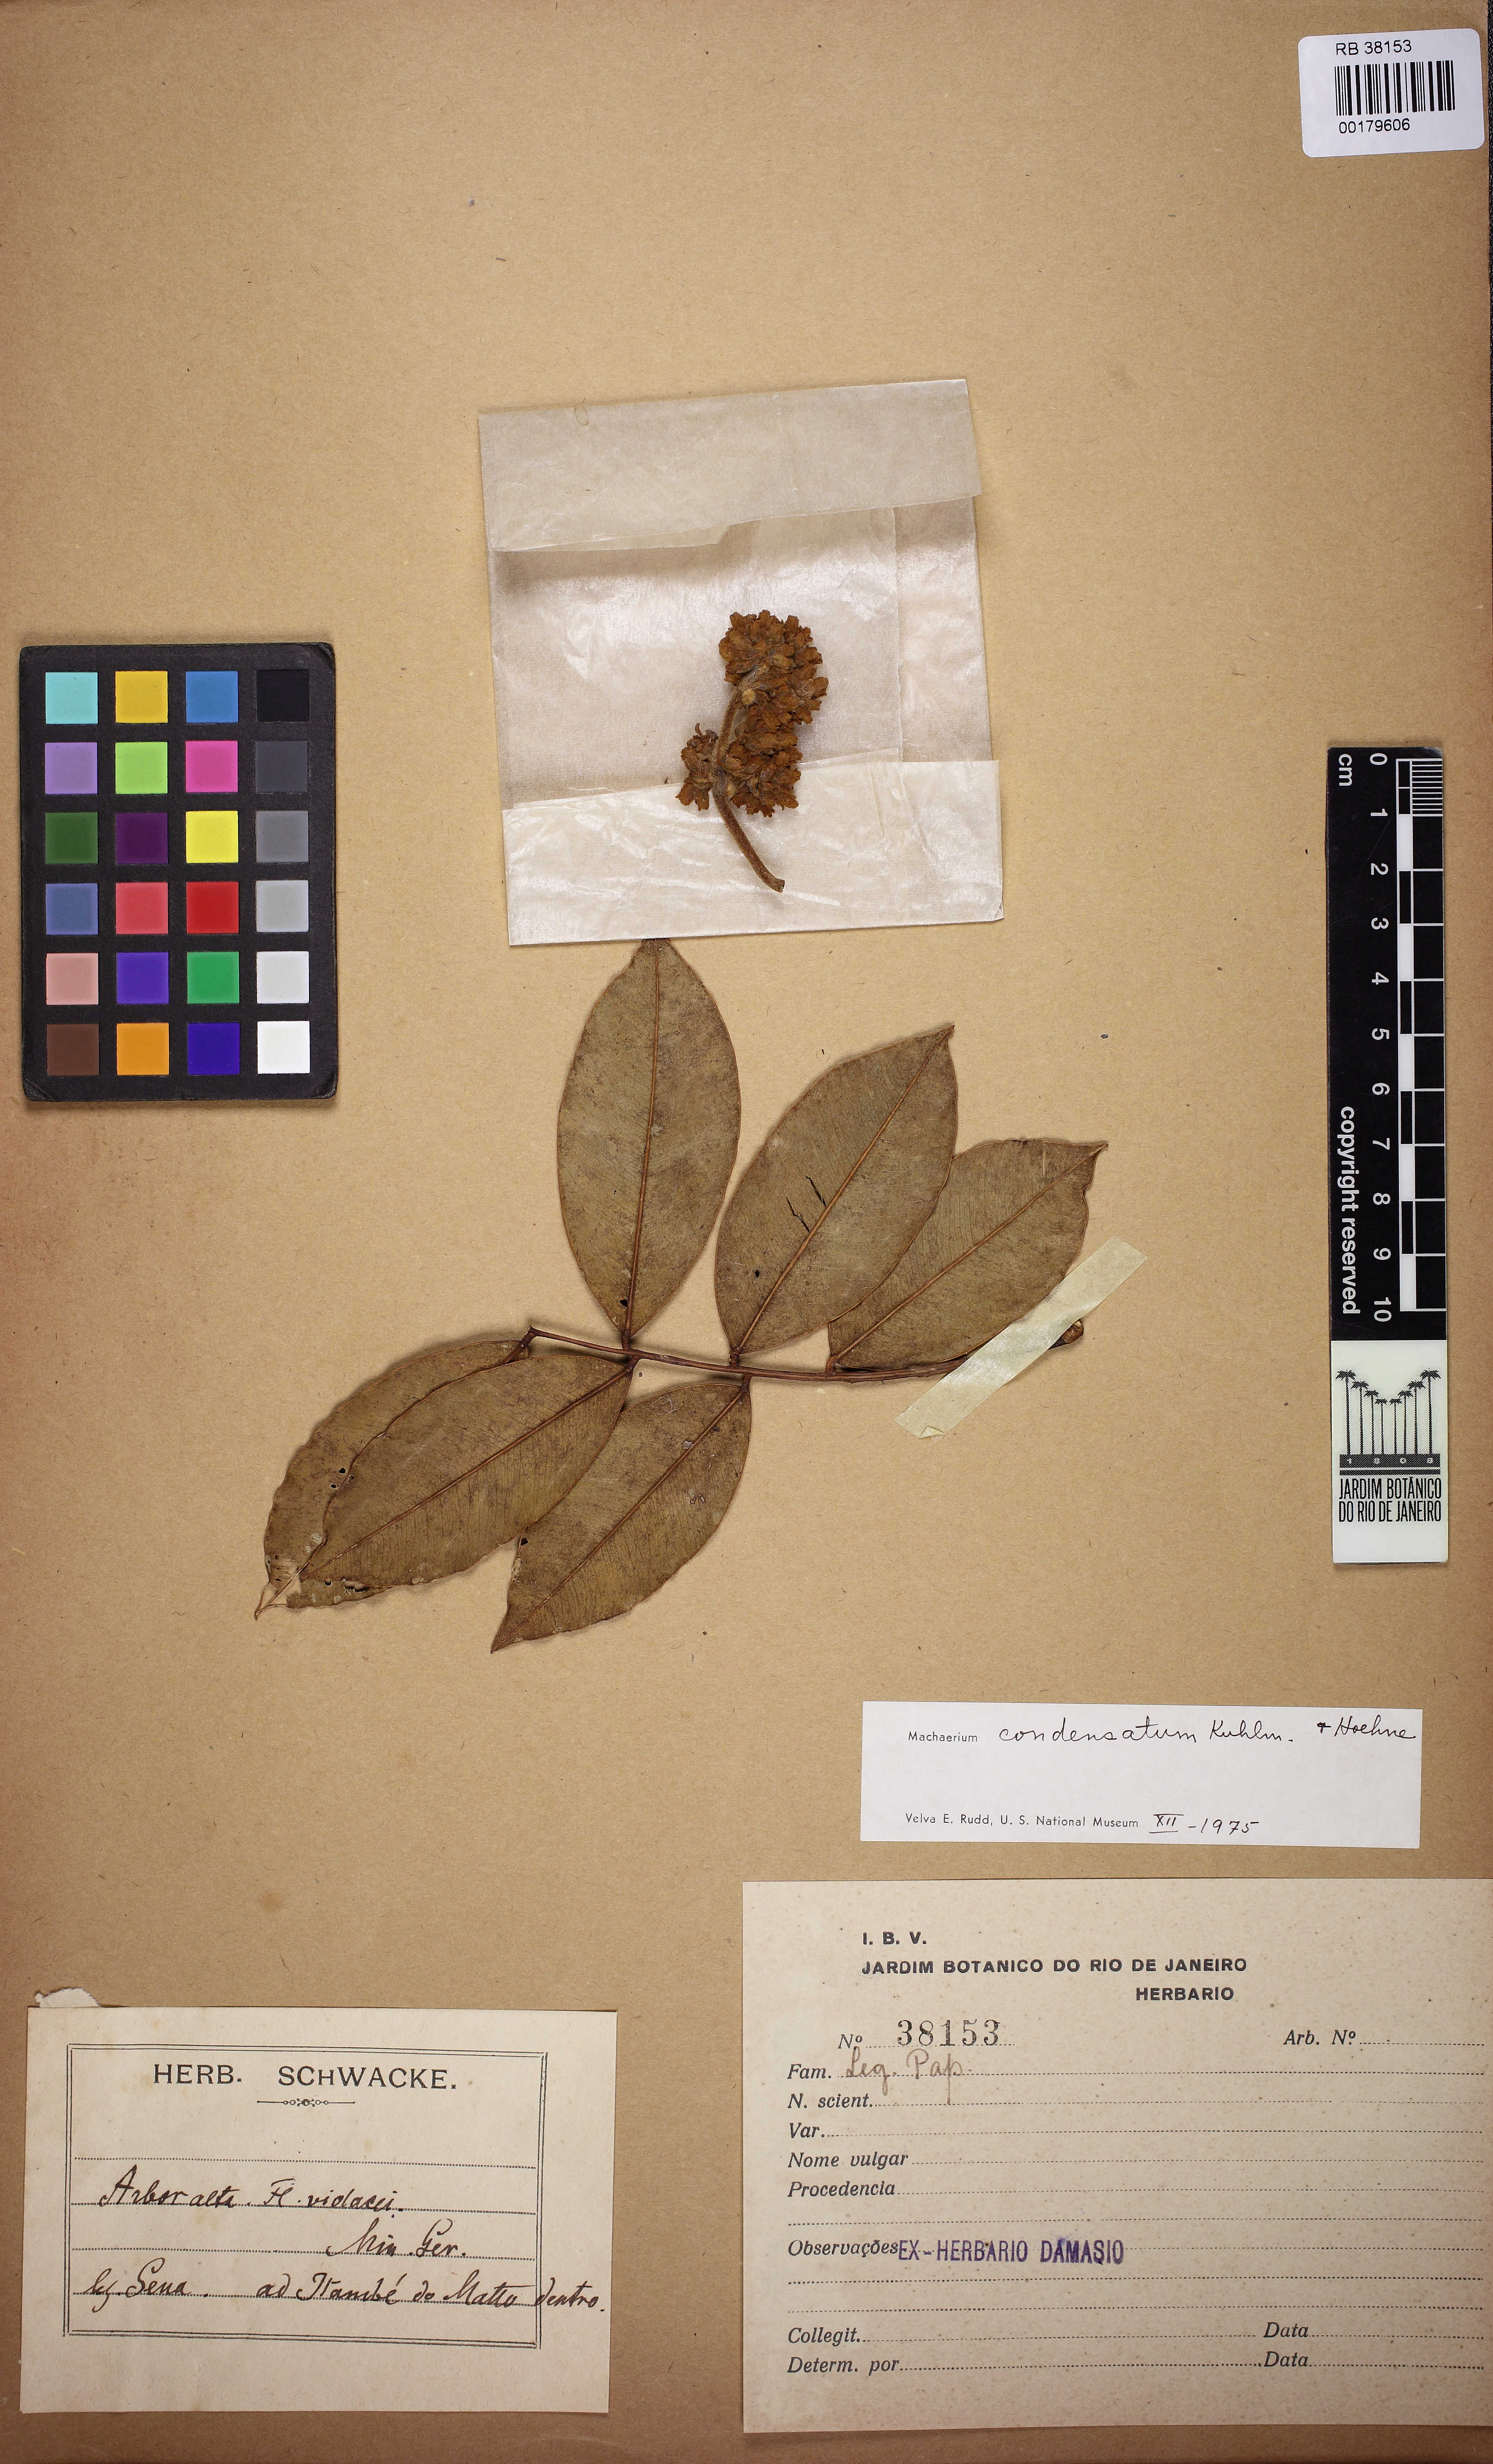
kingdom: Plantae
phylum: Tracheophyta
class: Magnoliopsida
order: Fabales
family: Fabaceae
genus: Machaerium
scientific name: Machaerium condensatum
